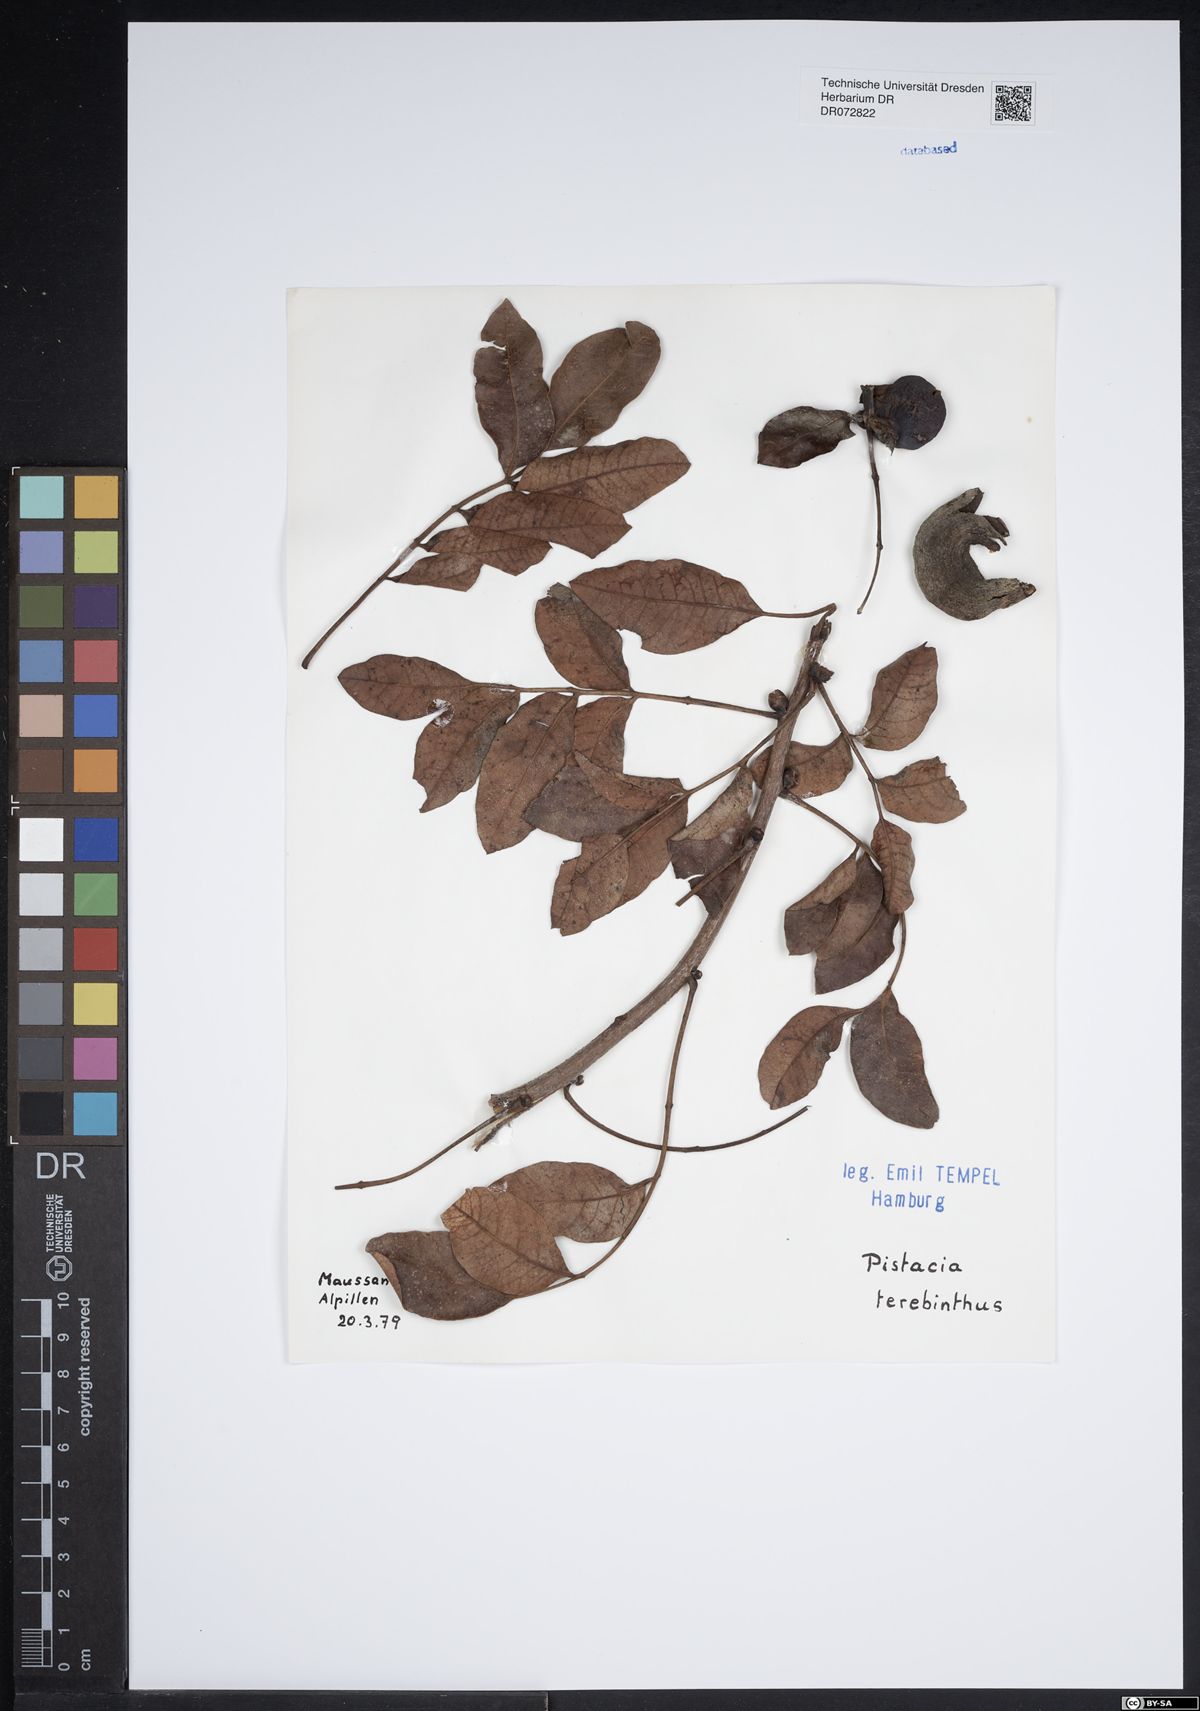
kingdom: Plantae
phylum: Tracheophyta
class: Magnoliopsida
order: Sapindales
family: Anacardiaceae
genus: Pistacia
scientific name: Pistacia terebinthus
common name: Terebinth
